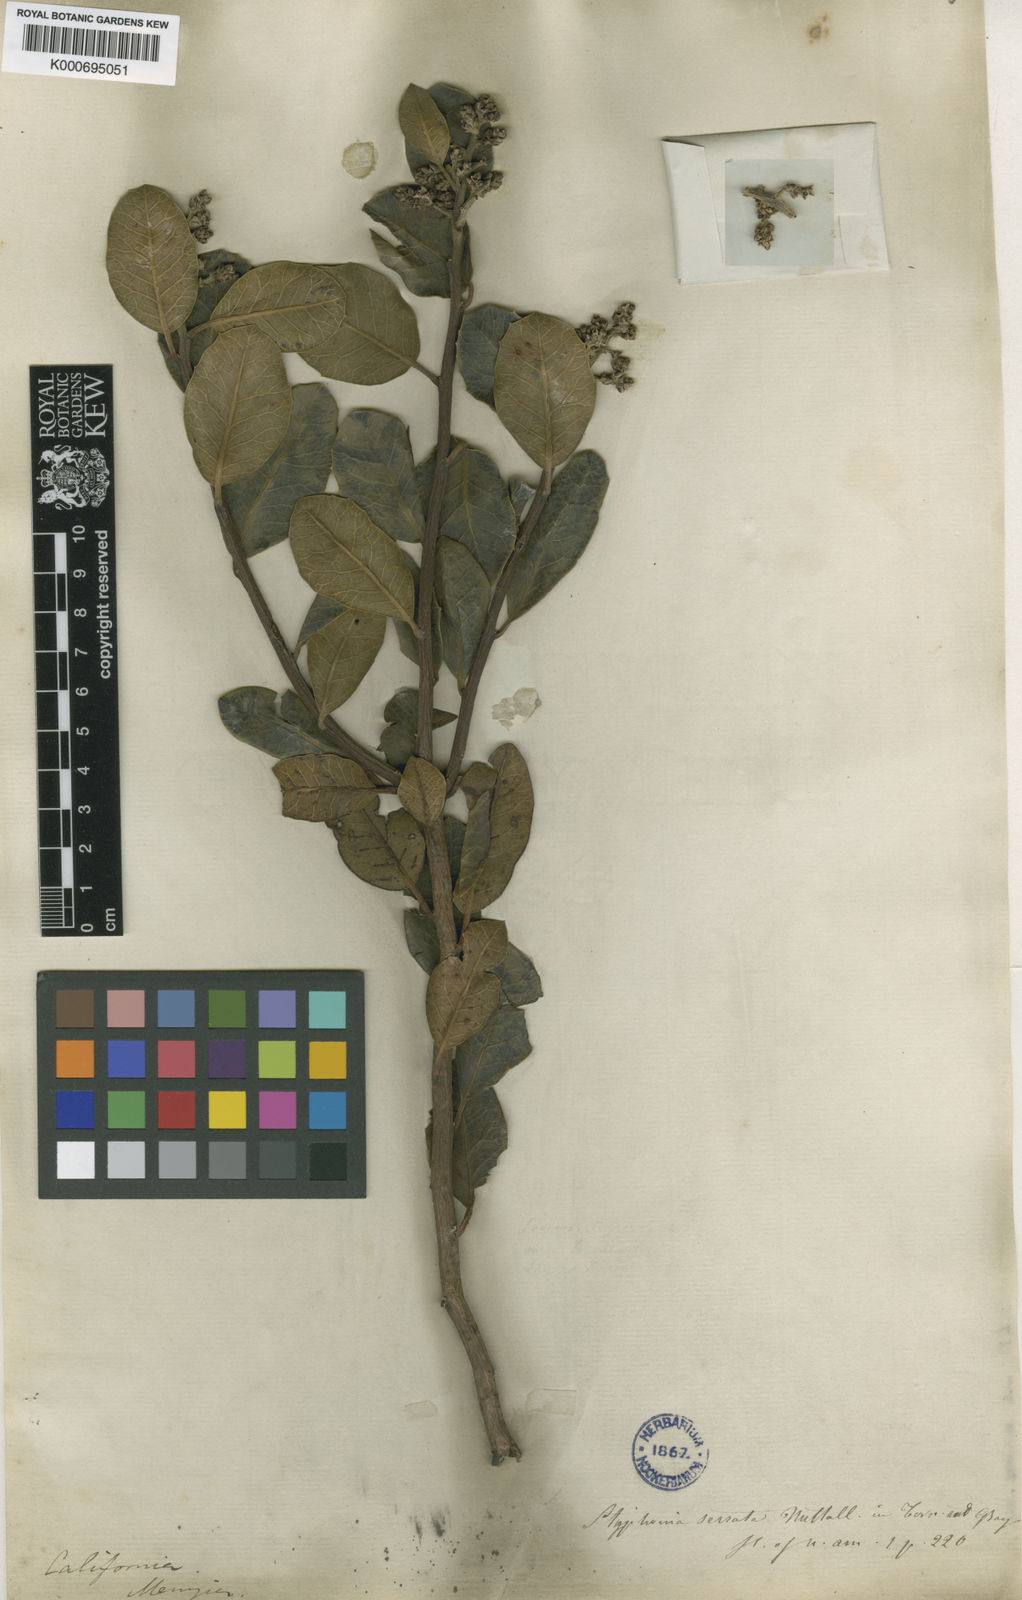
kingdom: Plantae
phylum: Tracheophyta
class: Magnoliopsida
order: Sapindales
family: Anacardiaceae
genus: Rhus
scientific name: Rhus
